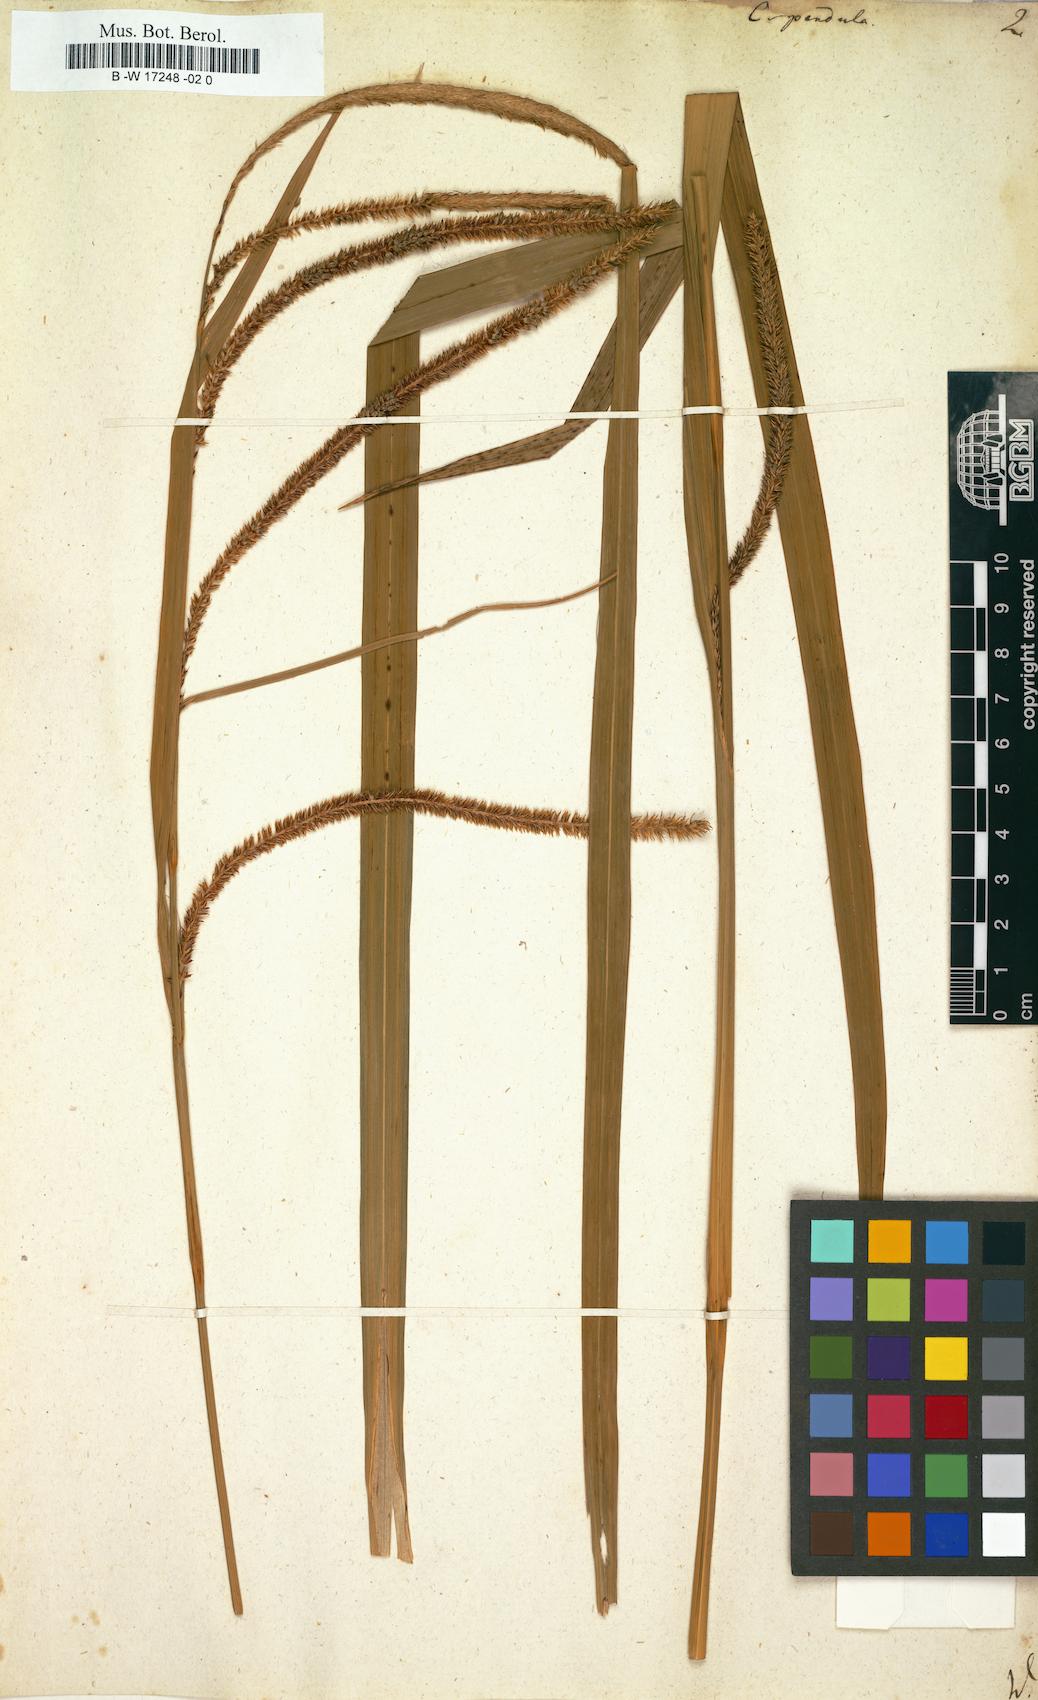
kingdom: Plantae
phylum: Tracheophyta
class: Liliopsida
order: Poales
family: Cyperaceae
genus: Carex
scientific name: Carex pendula
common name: Pendulous sedge
